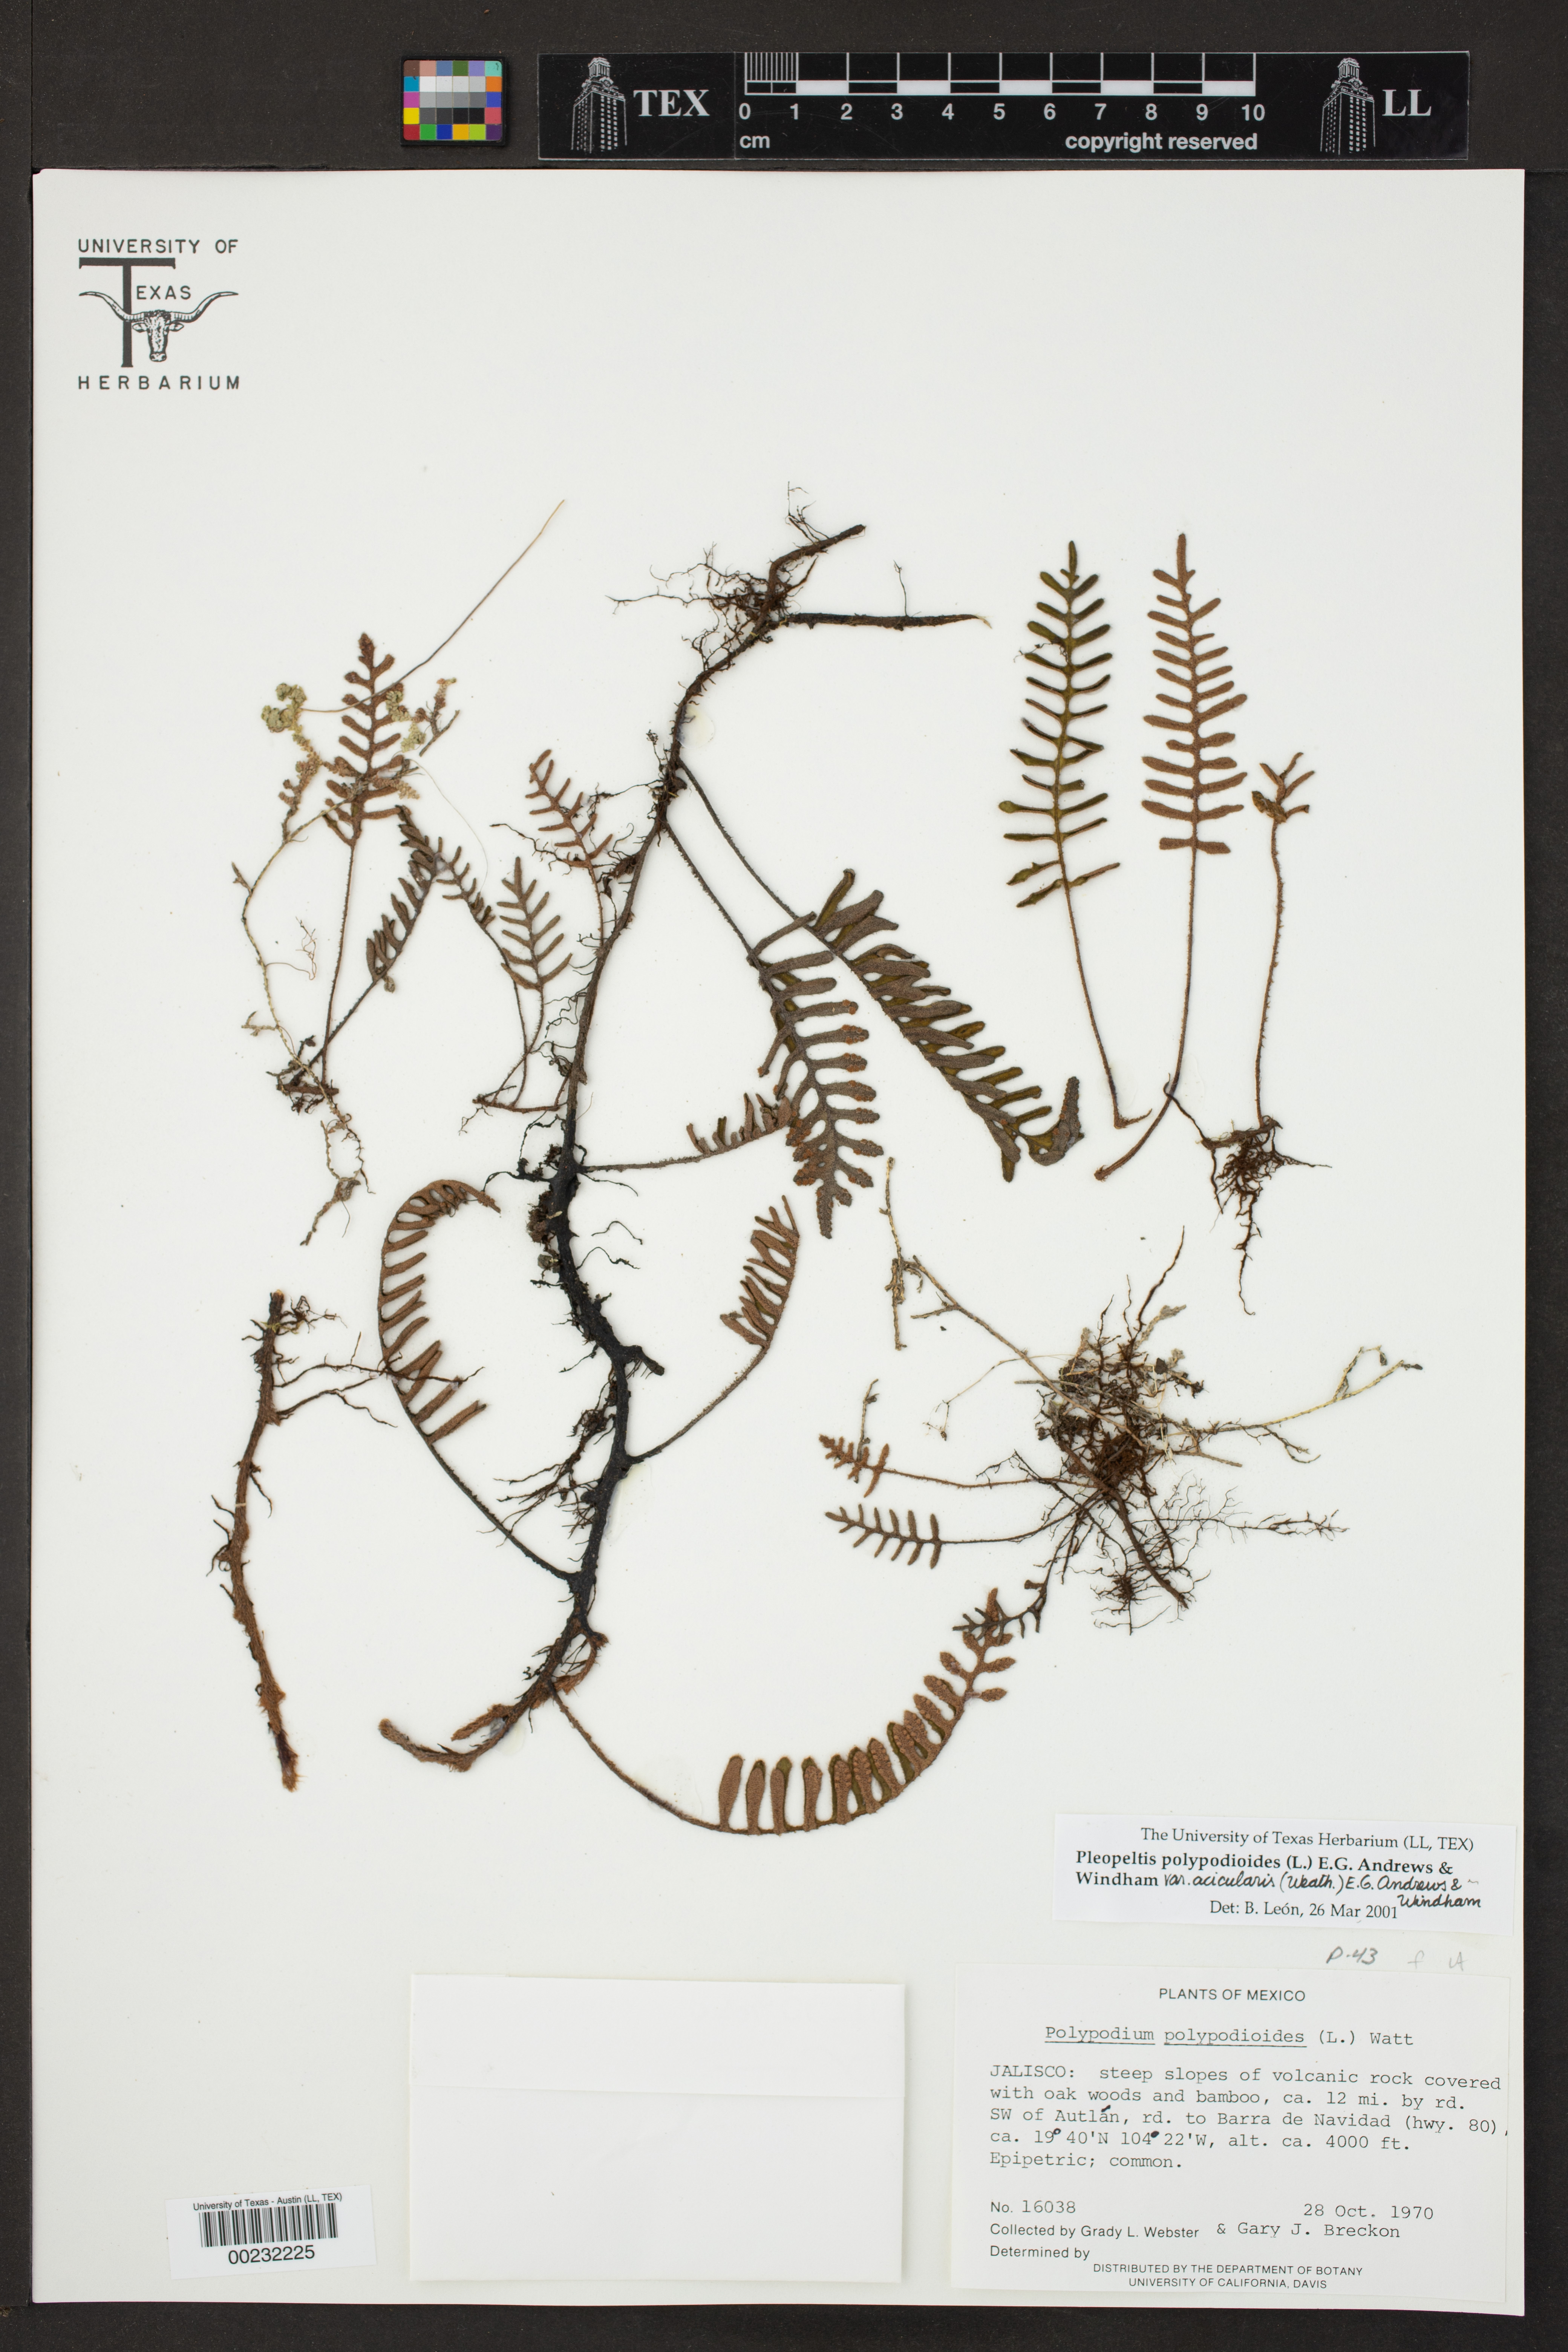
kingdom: Plantae
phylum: Tracheophyta
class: Polypodiopsida
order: Polypodiales
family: Polypodiaceae
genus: Pleopeltis
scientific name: Pleopeltis acicularis
